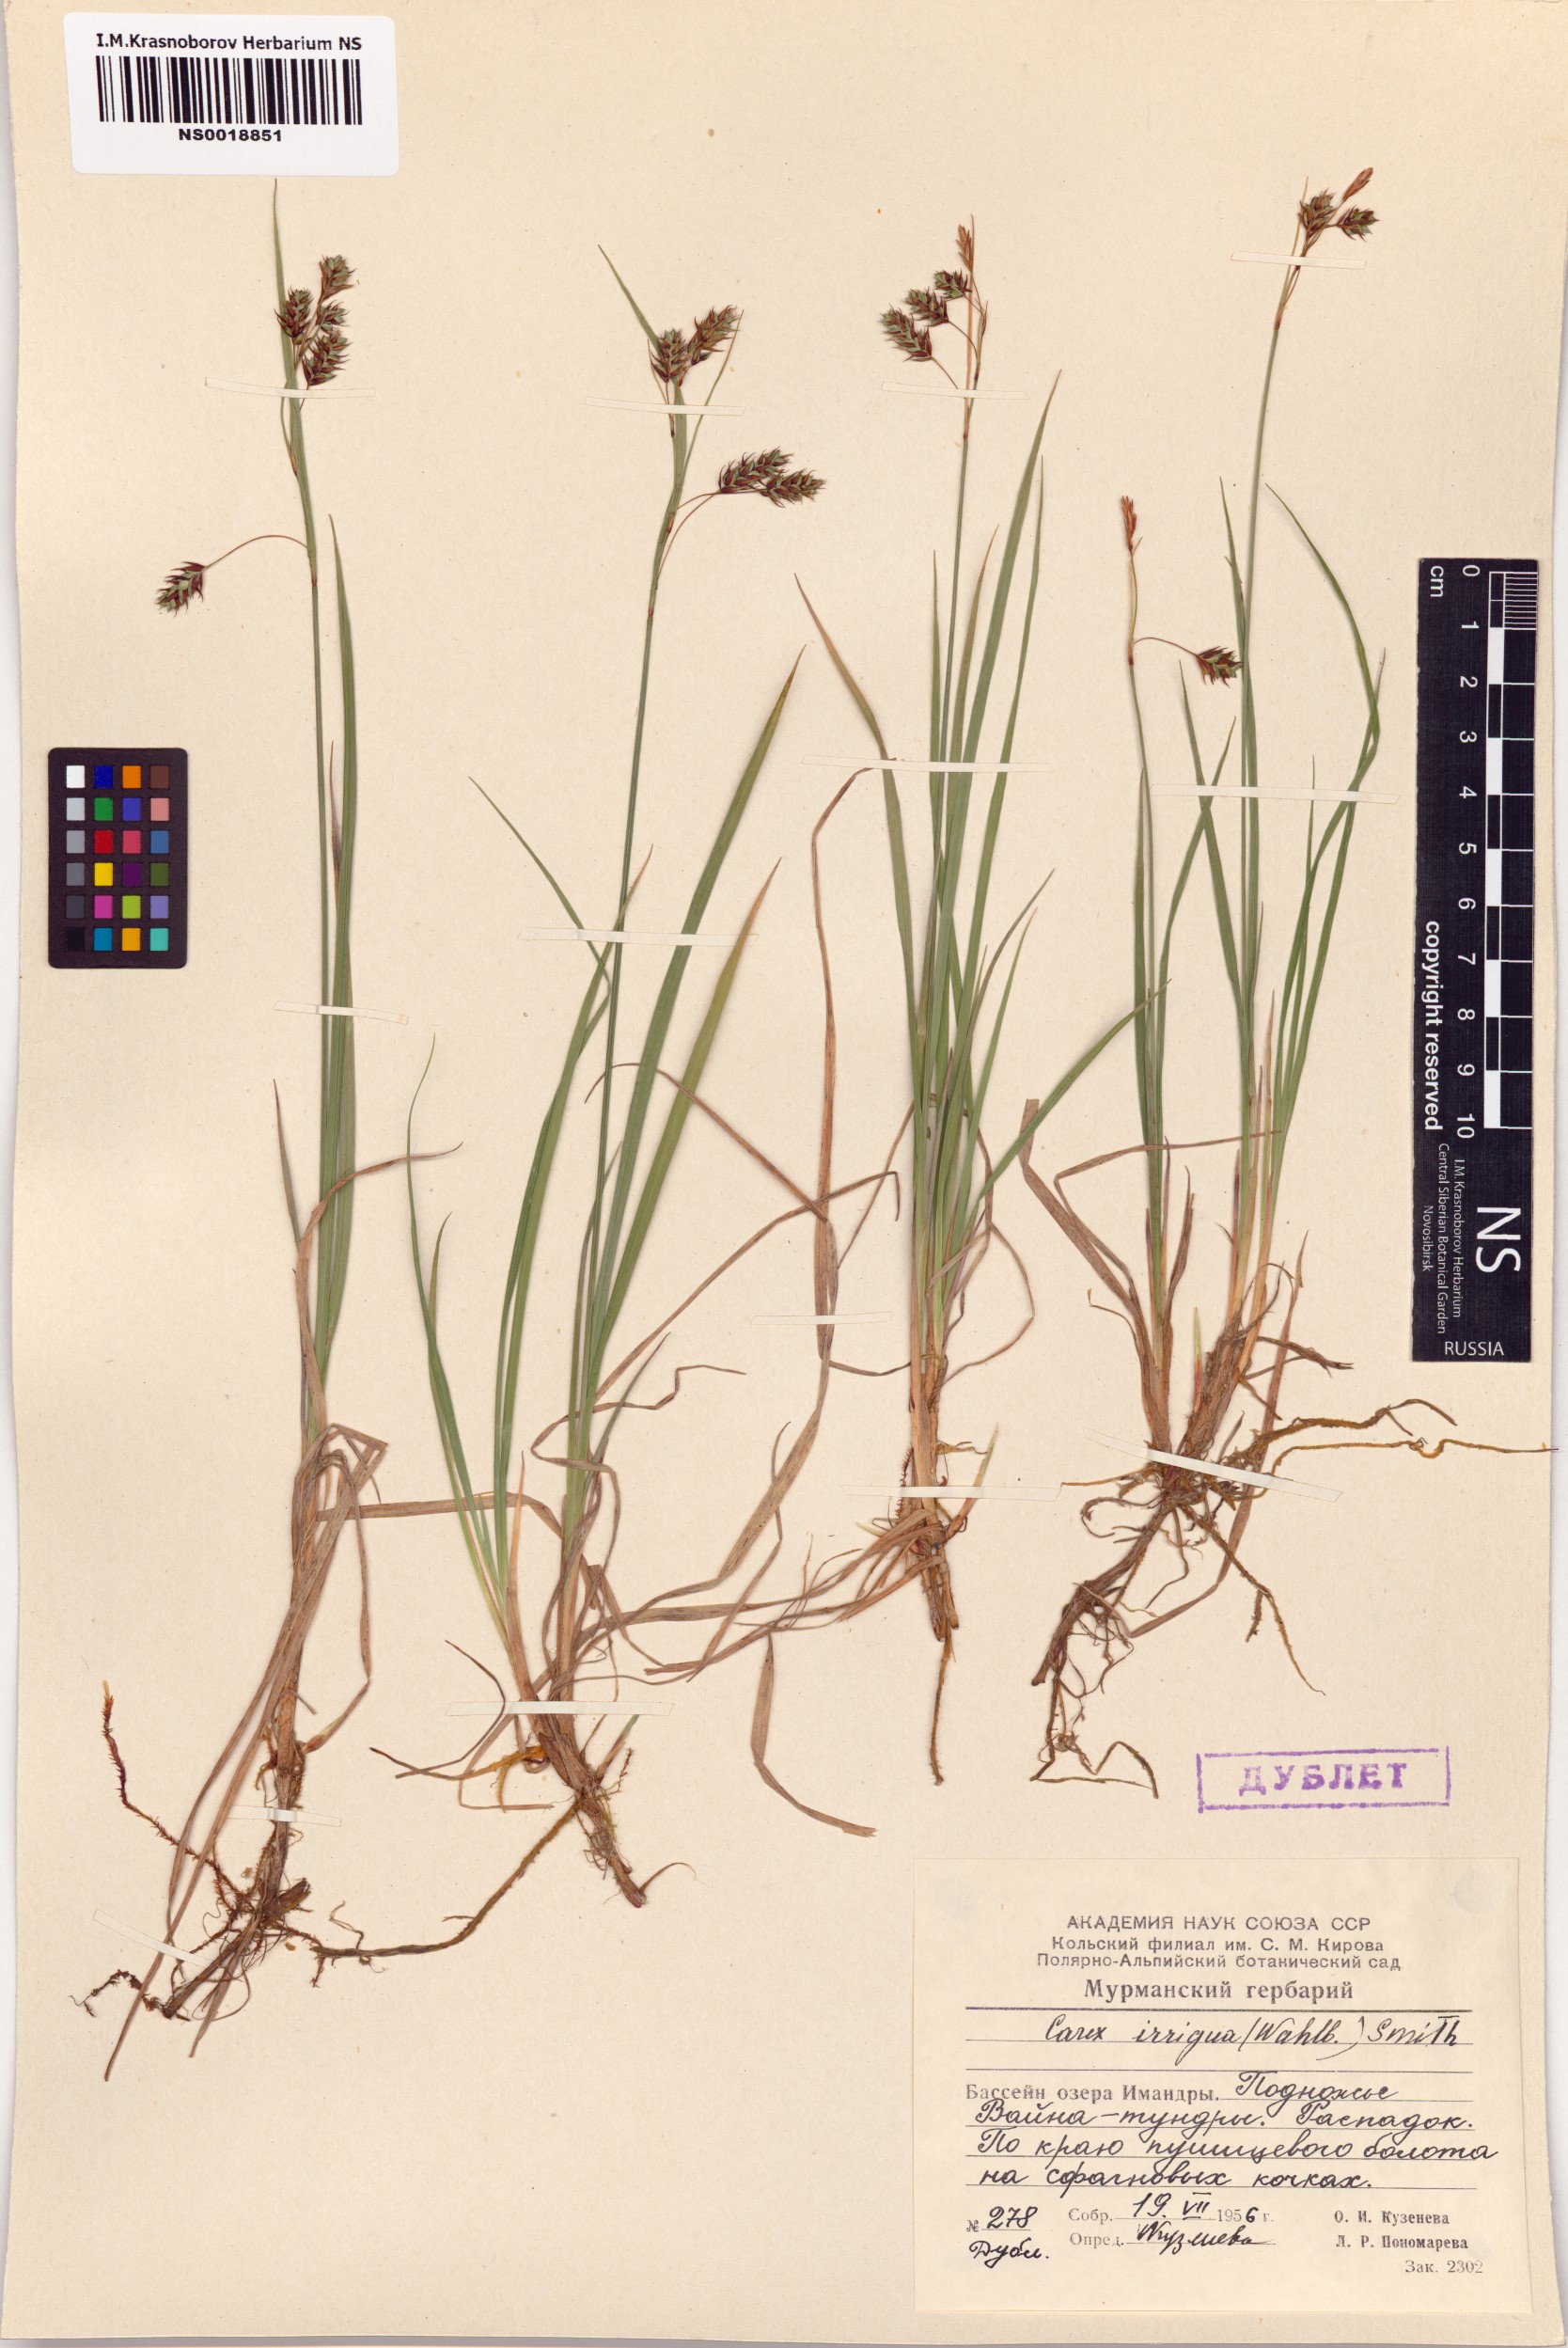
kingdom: Plantae
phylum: Tracheophyta
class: Liliopsida
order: Poales
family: Cyperaceae
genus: Carex
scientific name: Carex magellanica
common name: Bog sedge
